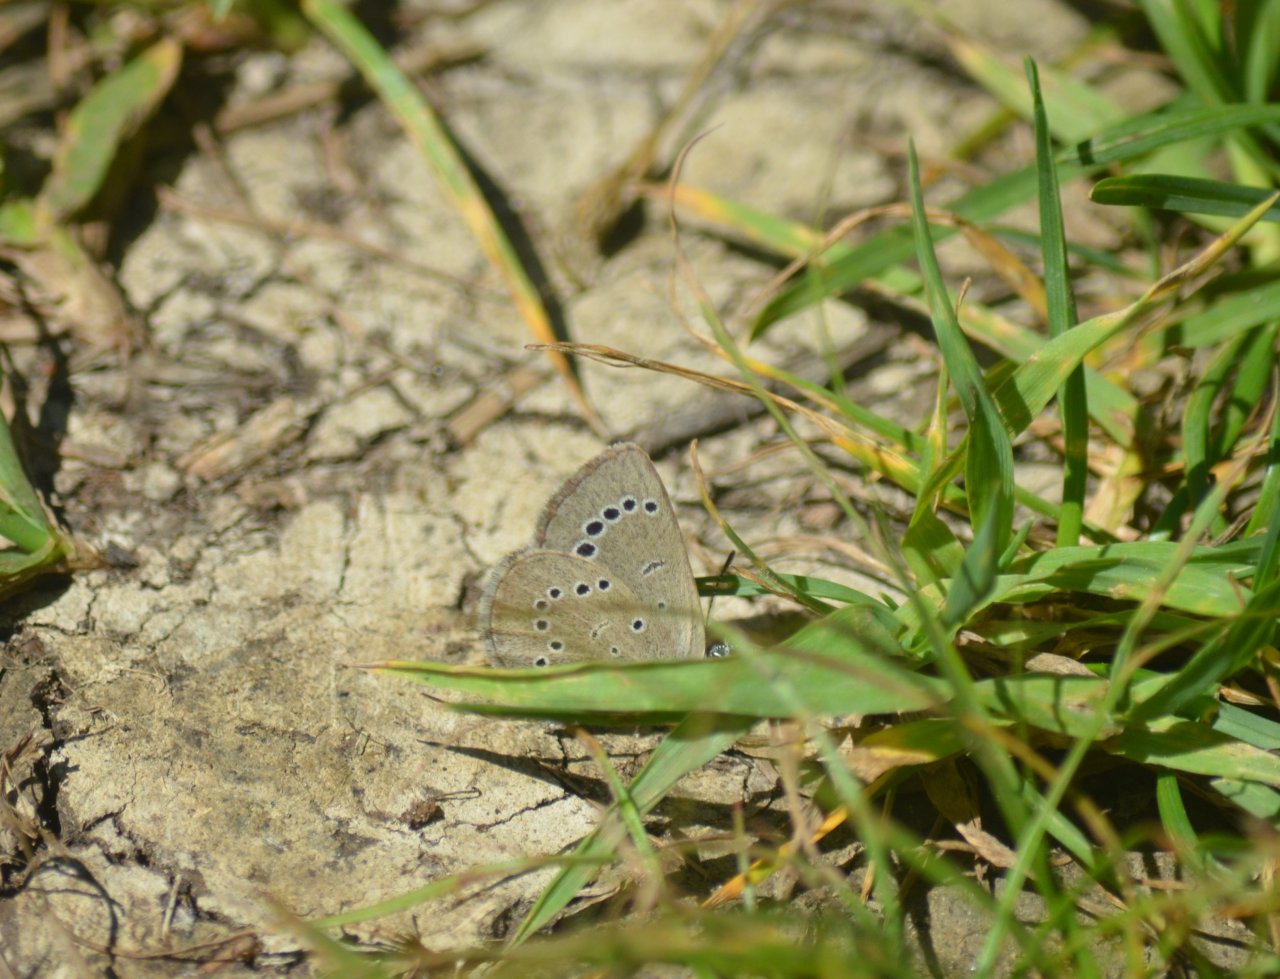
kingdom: Animalia
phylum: Arthropoda
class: Insecta
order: Lepidoptera
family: Lycaenidae
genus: Glaucopsyche
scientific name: Glaucopsyche lygdamus
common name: Silvery Blue
